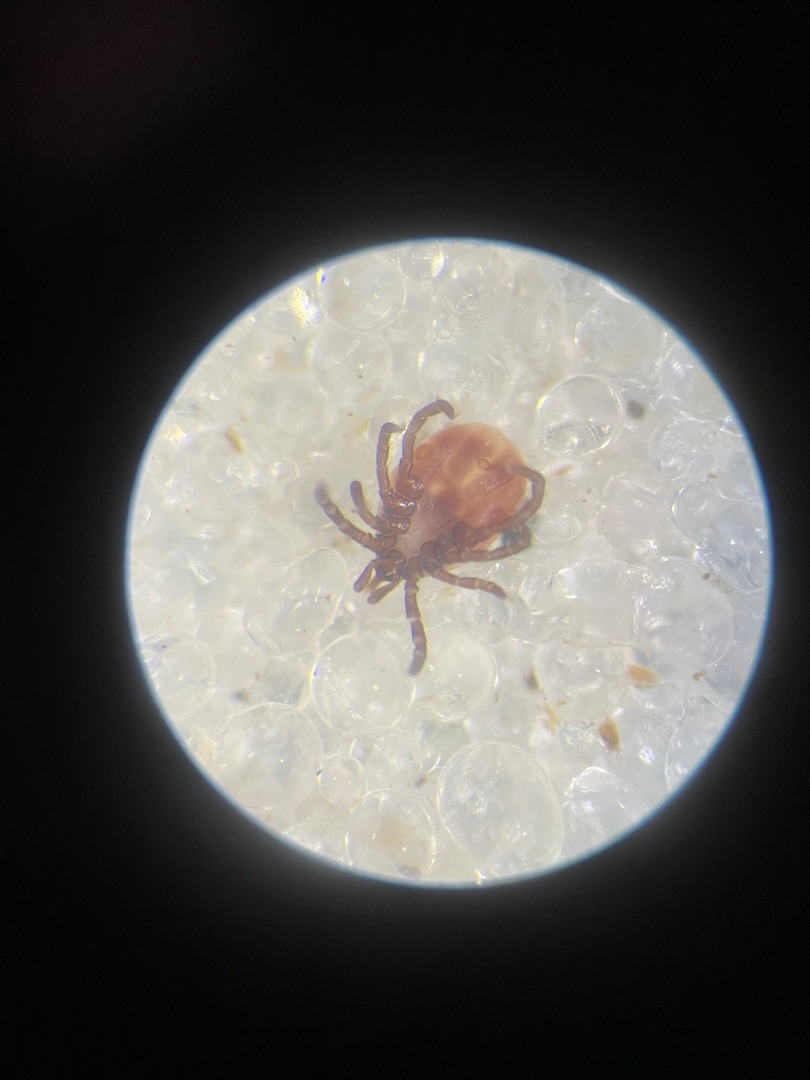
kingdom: Animalia
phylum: Arthropoda
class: Arachnida
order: Ixodida
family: Ixodidae
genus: Ixodes
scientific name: Ixodes ricinus
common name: Skovflåt
